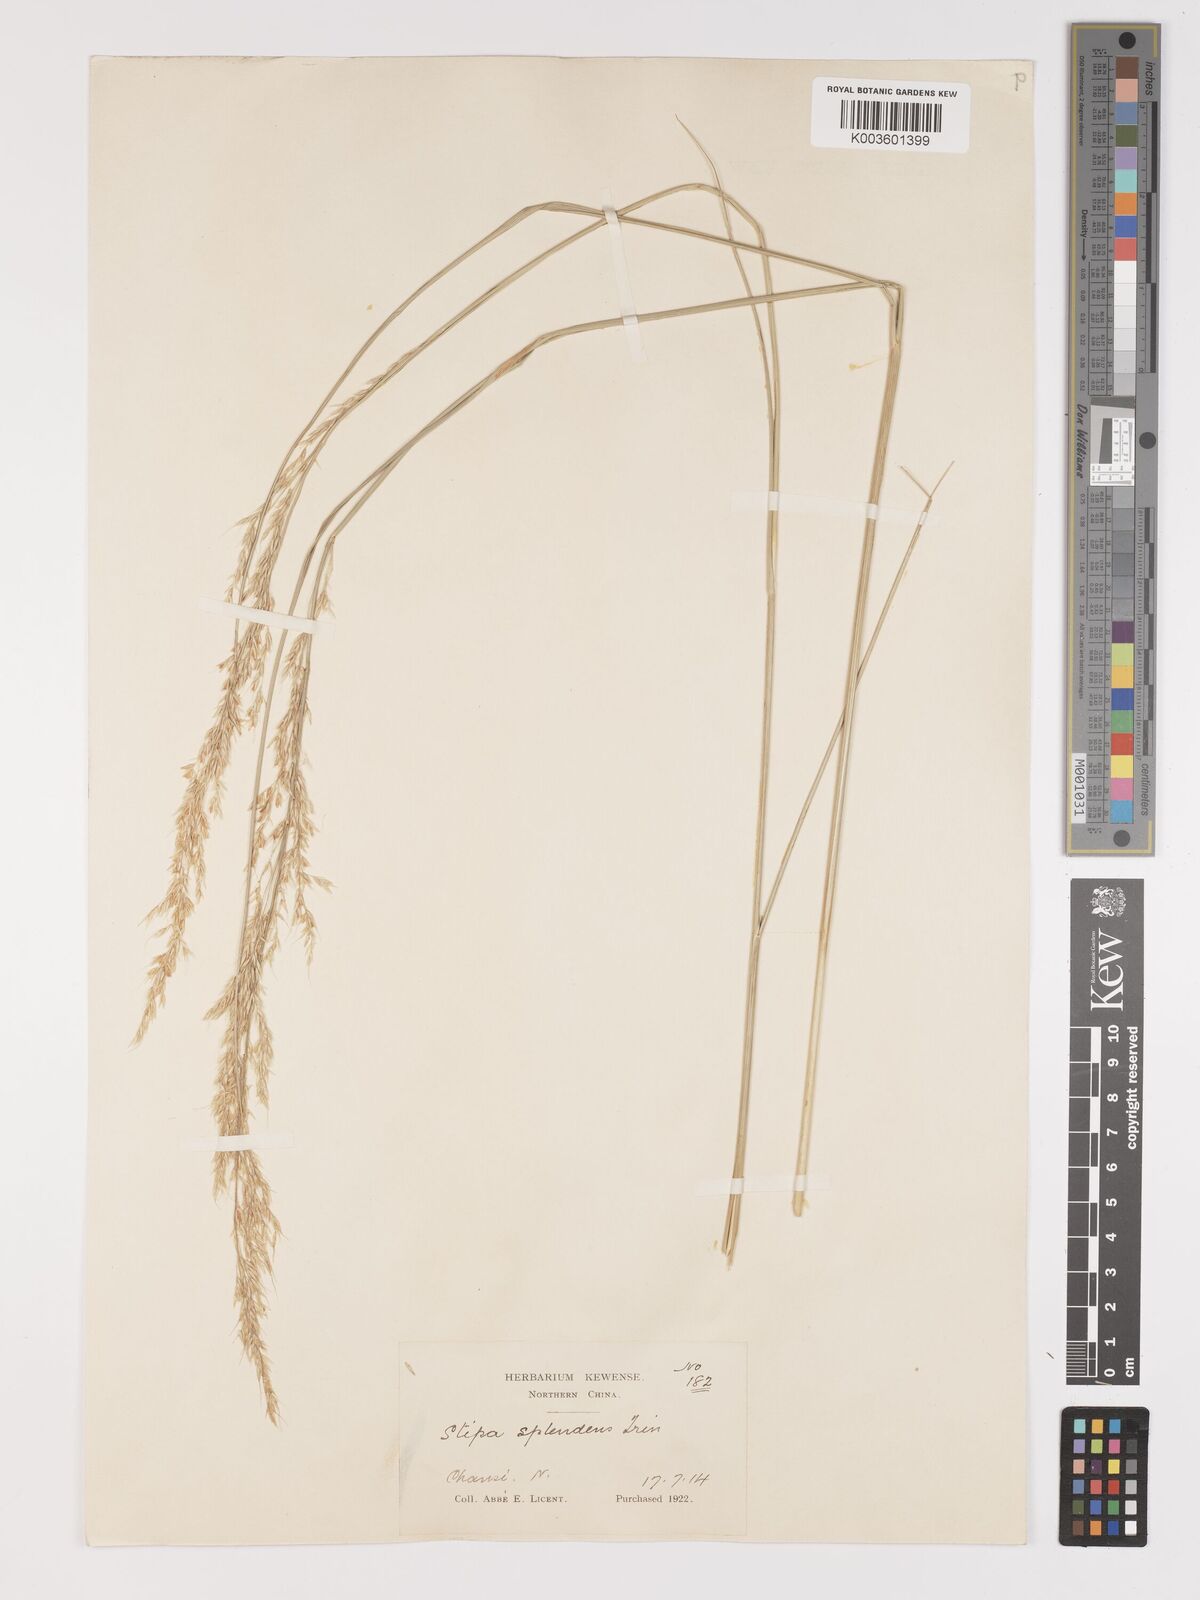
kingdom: Plantae
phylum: Tracheophyta
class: Liliopsida
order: Poales
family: Poaceae
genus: Neotrinia
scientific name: Neotrinia splendens
